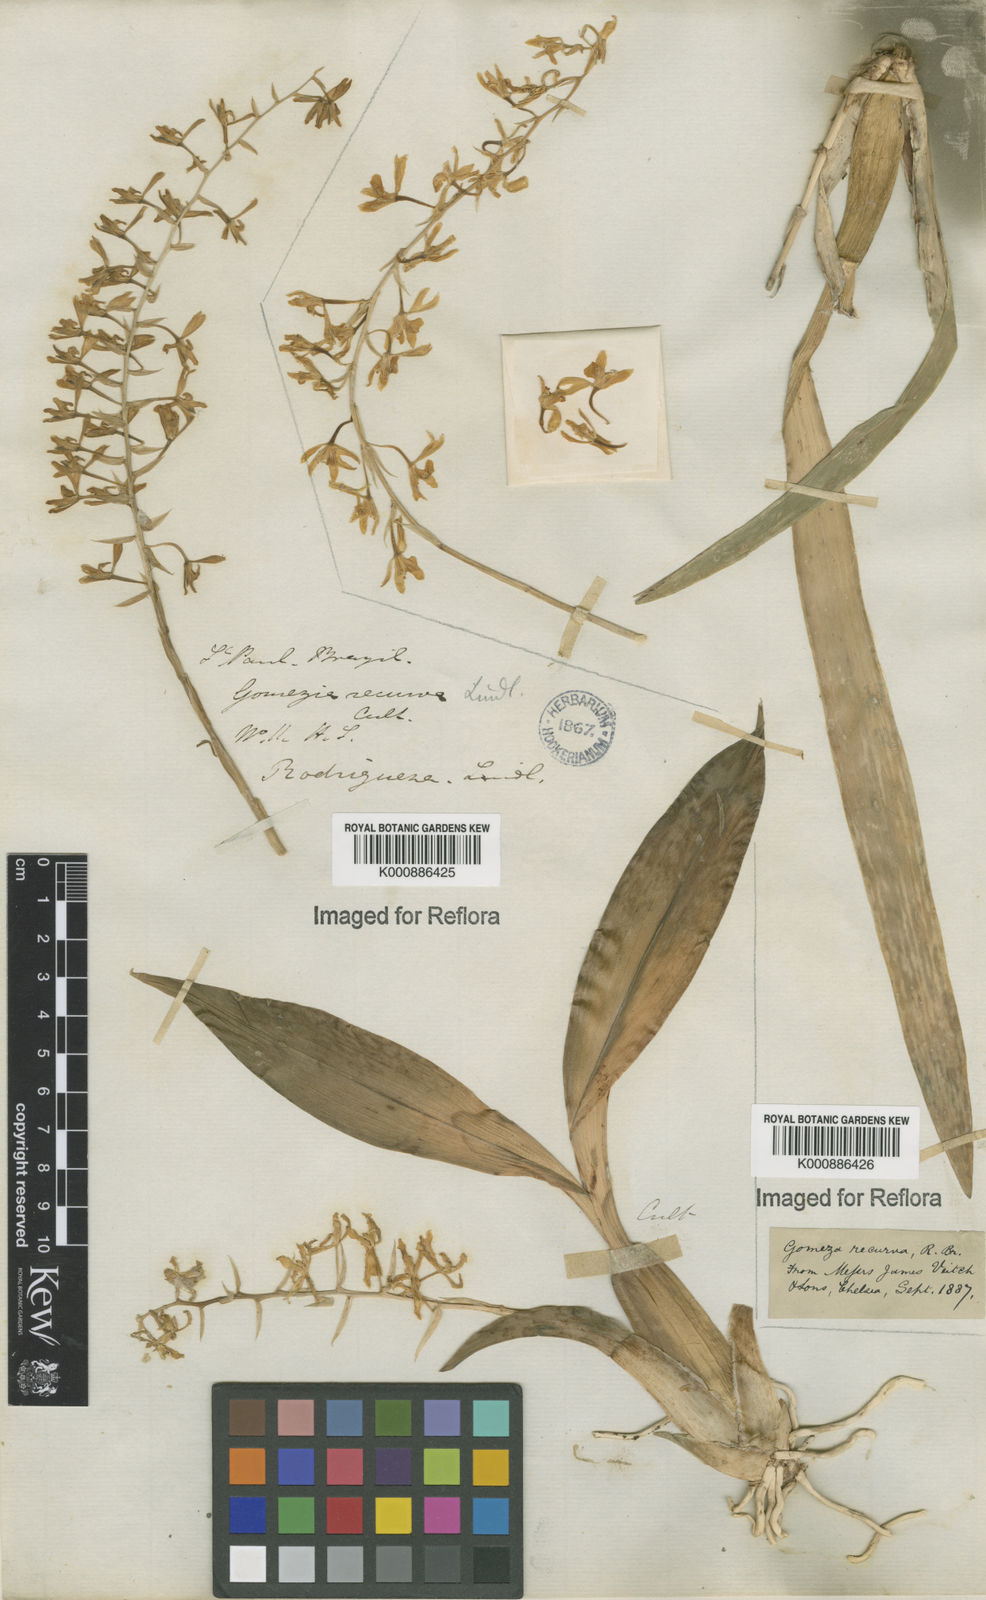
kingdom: Plantae
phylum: Tracheophyta
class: Liliopsida
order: Asparagales
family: Orchidaceae
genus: Gomesa
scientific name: Gomesa recurva
